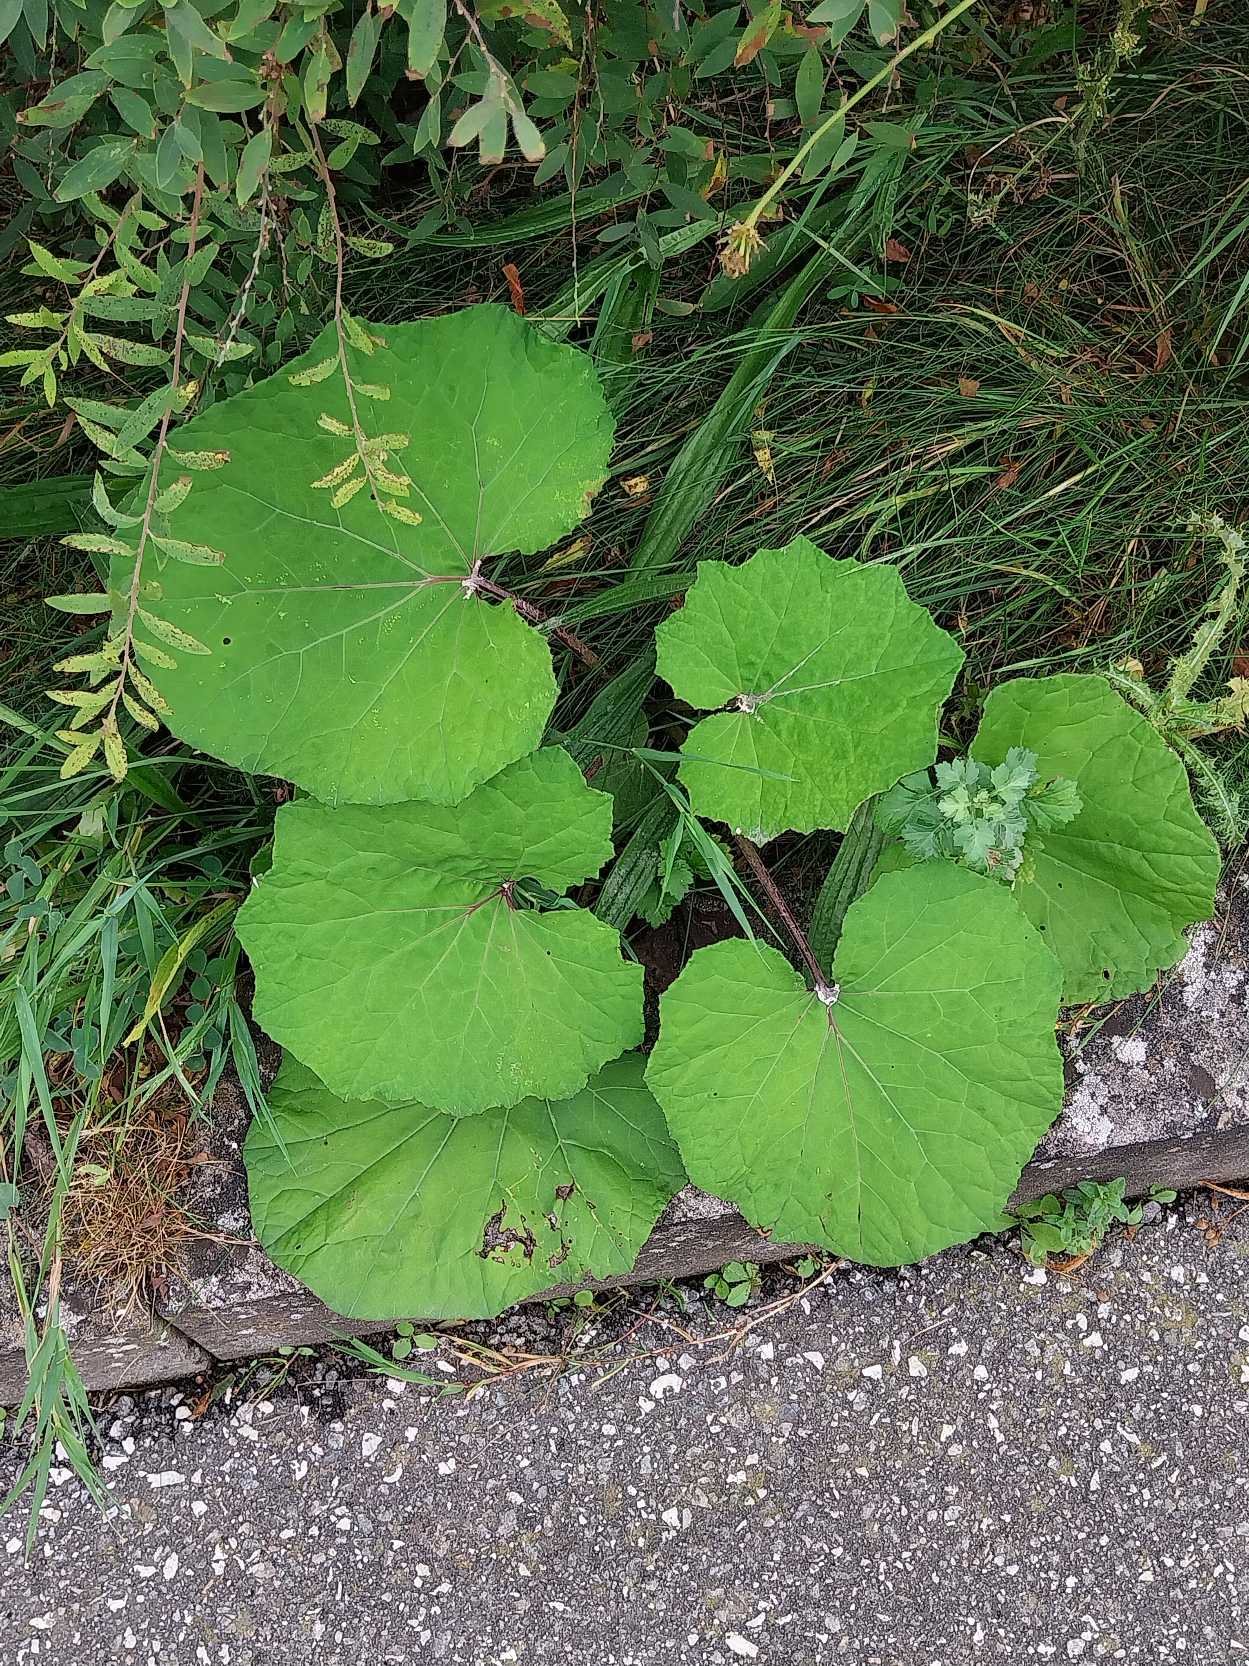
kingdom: Plantae
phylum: Tracheophyta
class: Magnoliopsida
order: Asterales
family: Asteraceae
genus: Tussilago
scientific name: Tussilago farfara
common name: Følfod
